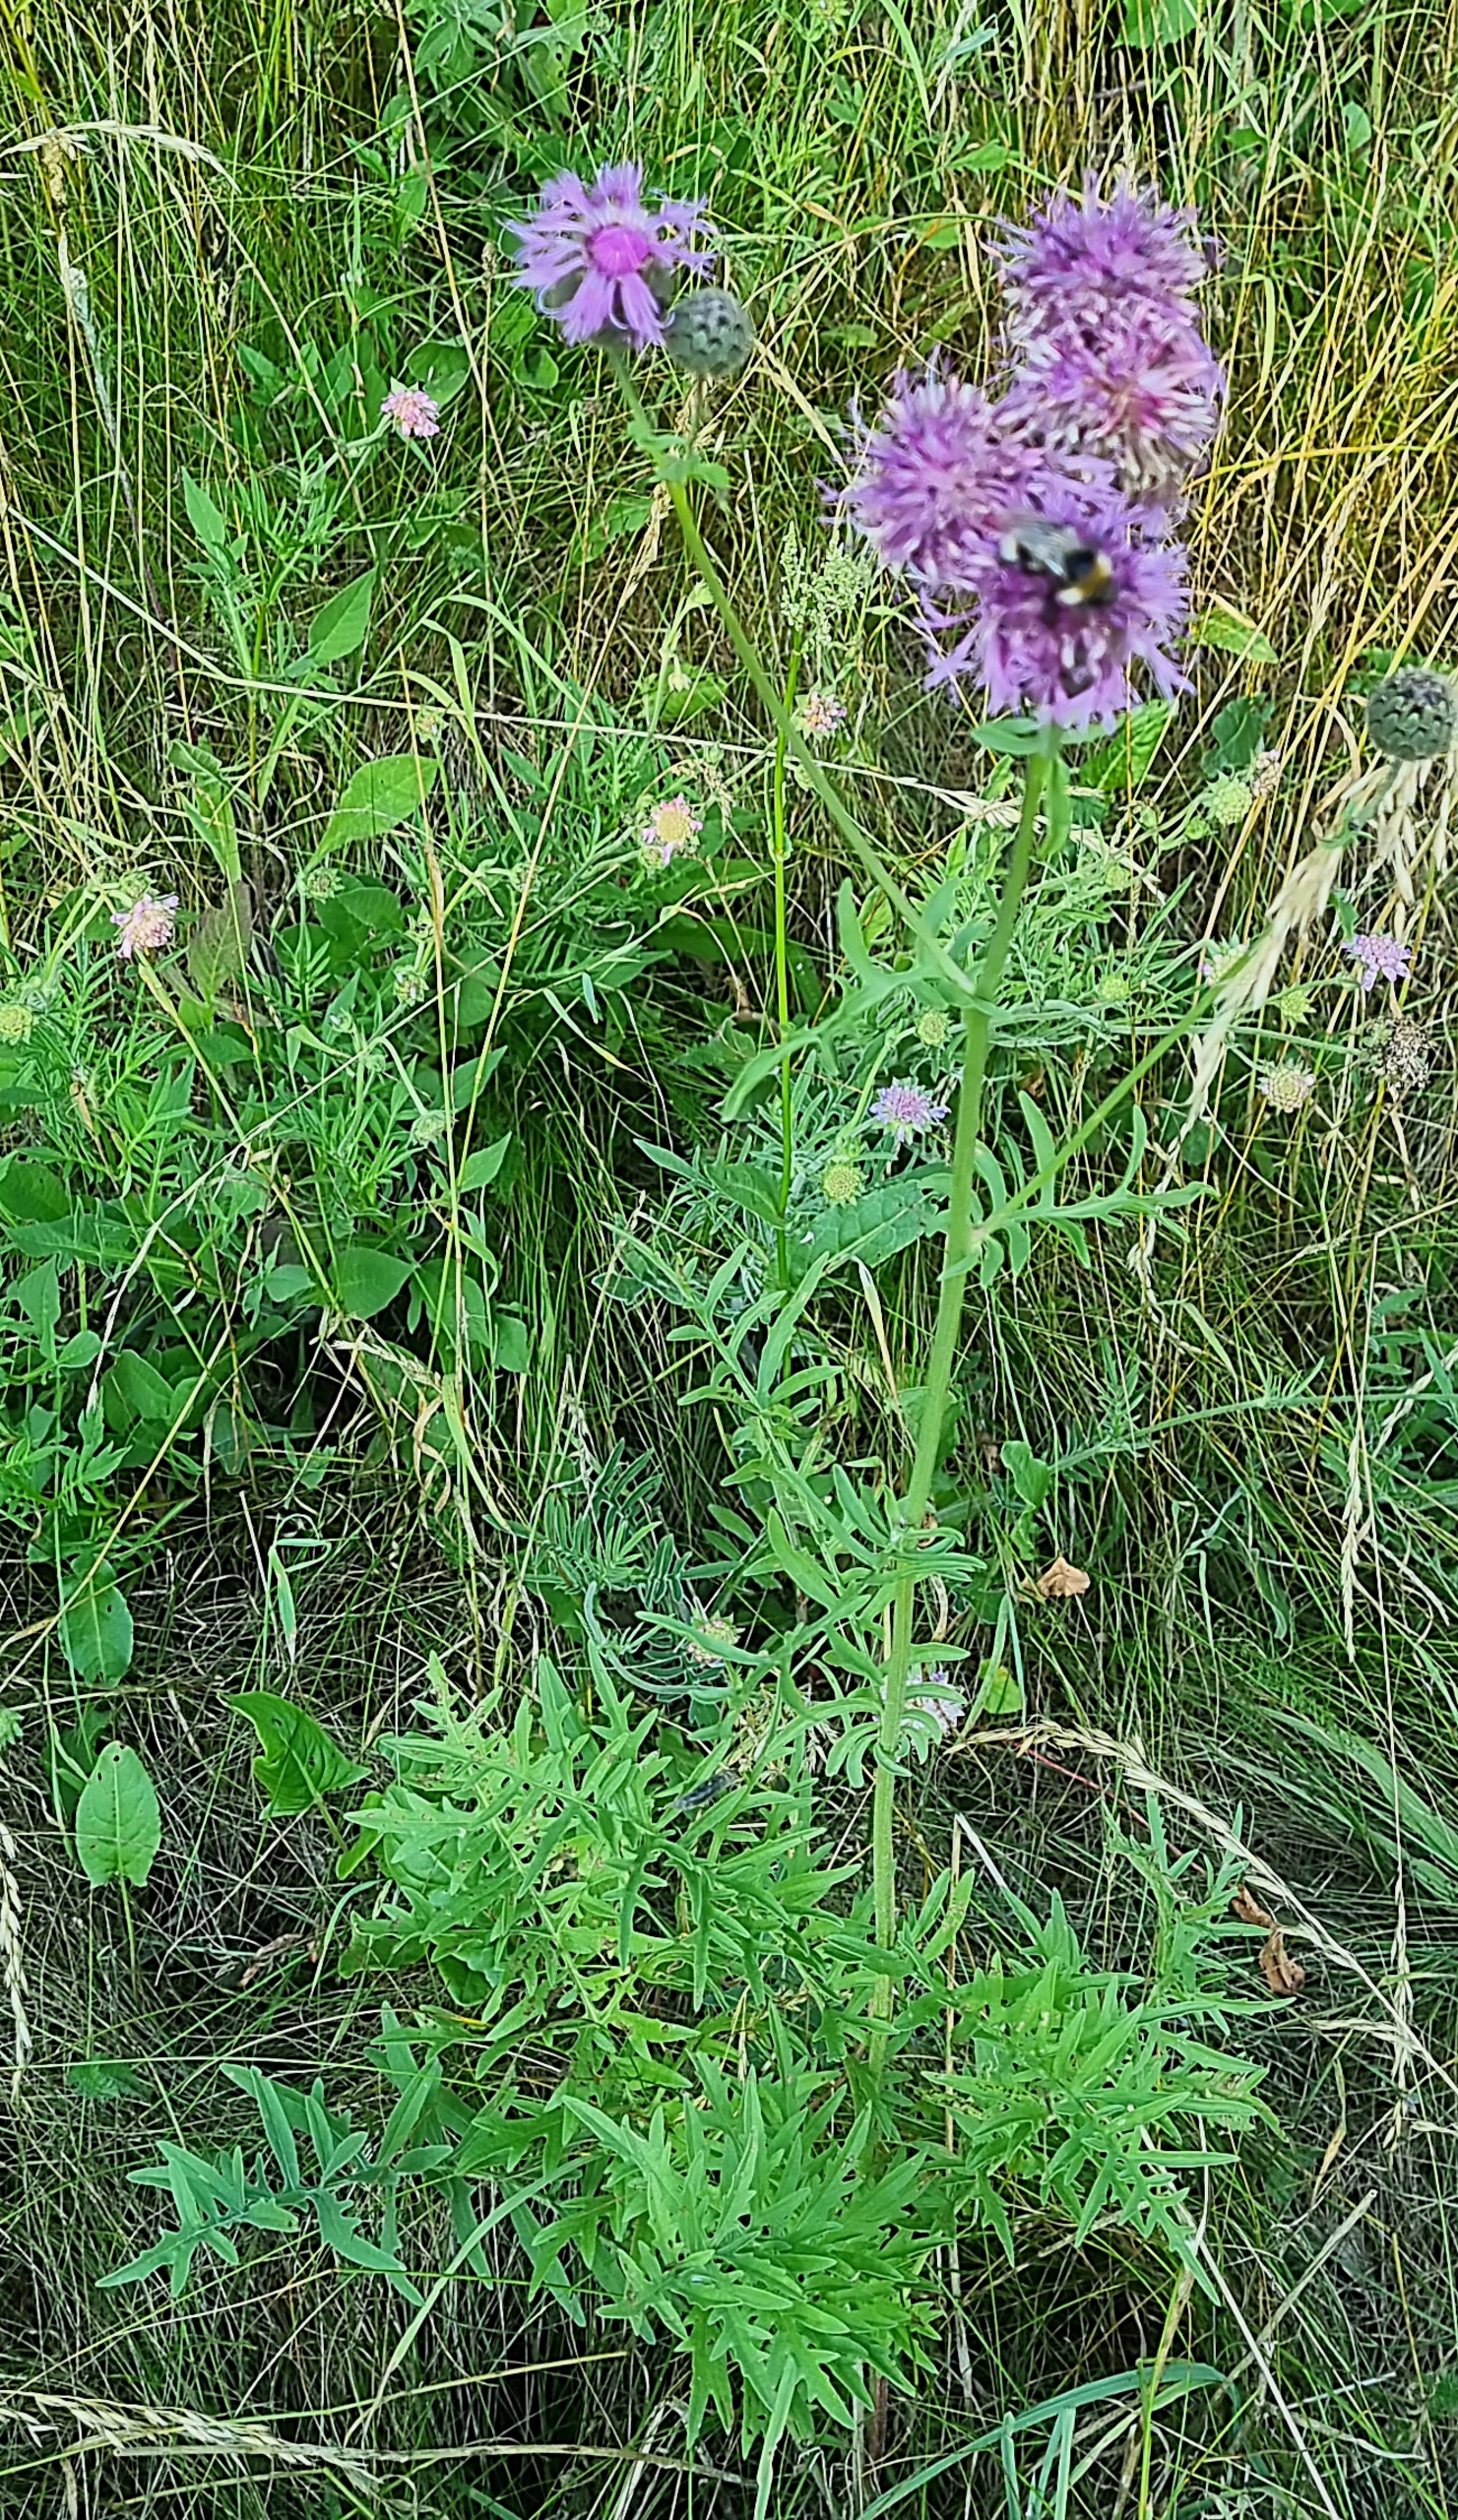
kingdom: Plantae
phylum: Tracheophyta
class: Magnoliopsida
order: Asterales
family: Asteraceae
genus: Centaurea
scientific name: Centaurea scabiosa
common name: Stor knopurt
